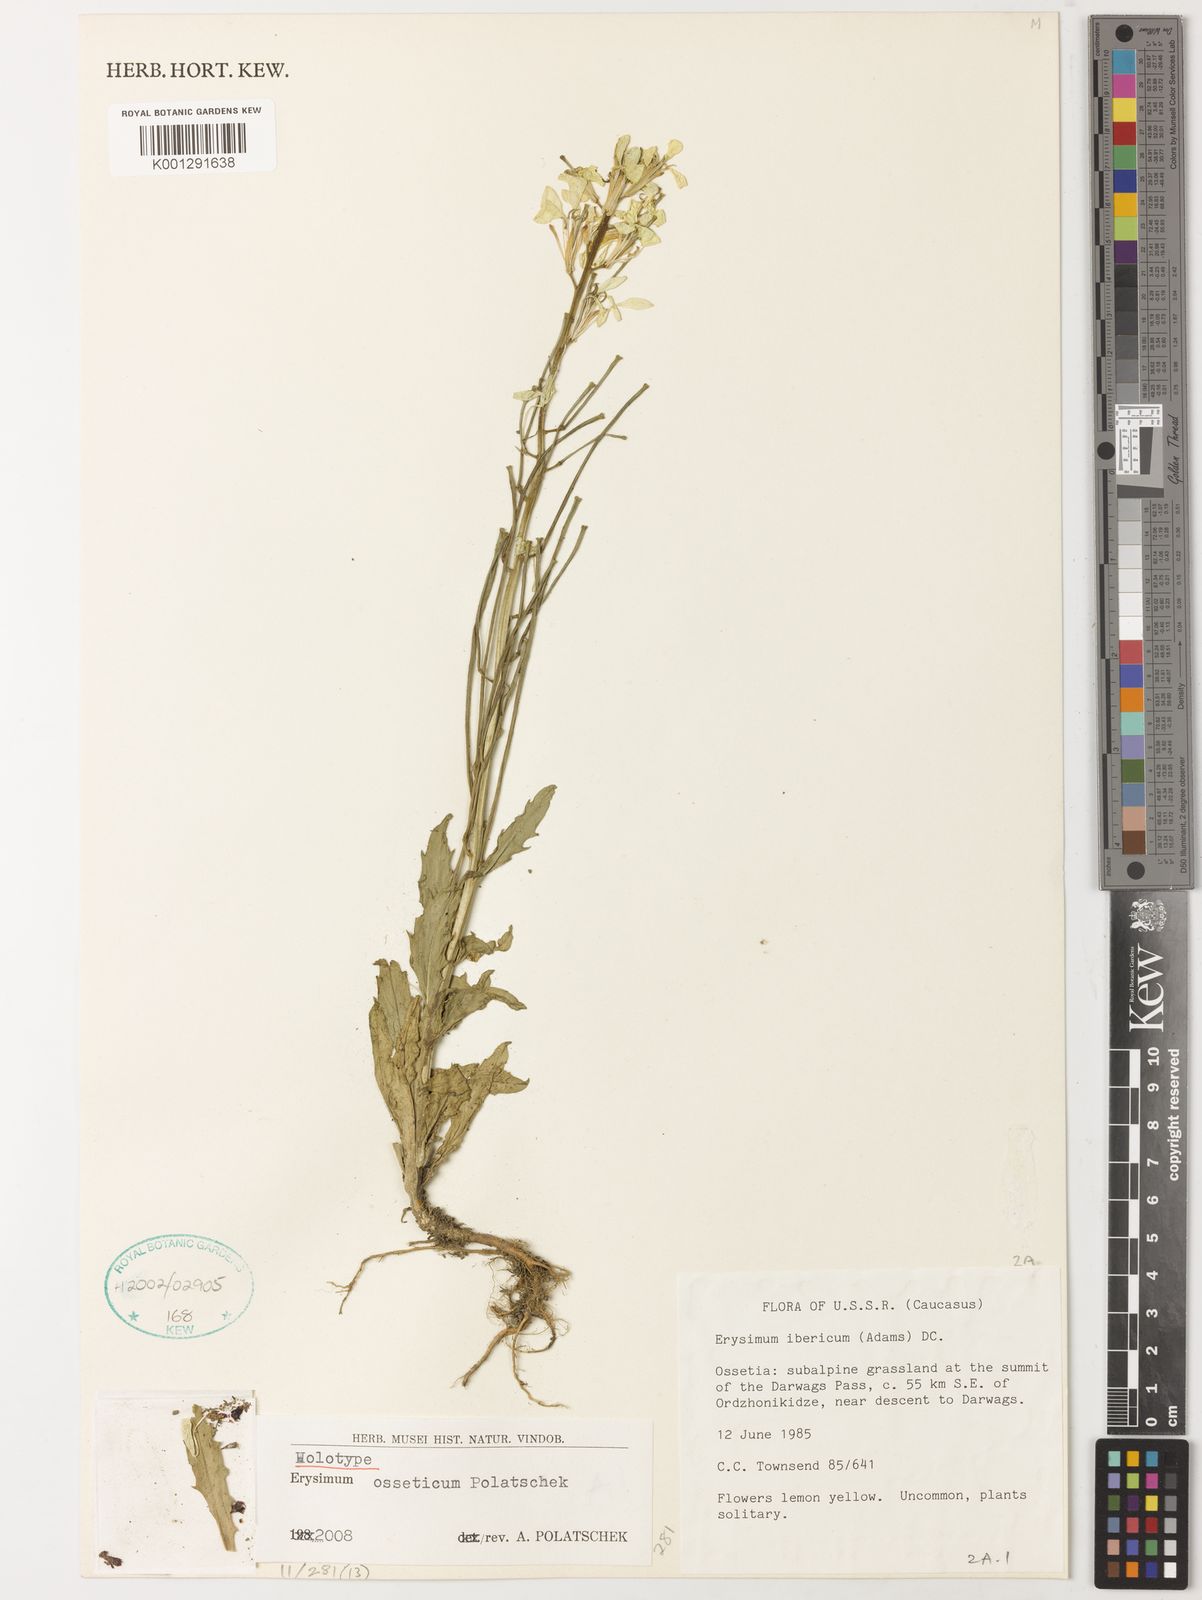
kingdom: Plantae
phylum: Tracheophyta
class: Magnoliopsida
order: Brassicales
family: Brassicaceae
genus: Erysimum
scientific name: Erysimum armeniacum
